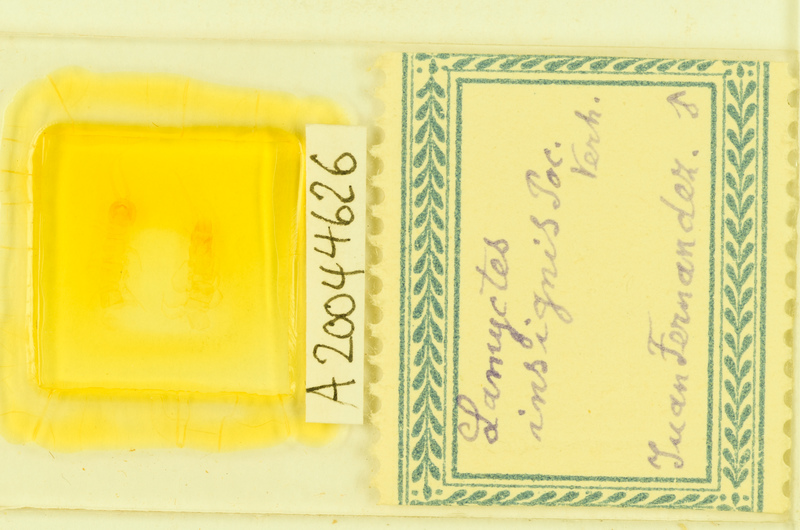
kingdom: Animalia
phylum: Arthropoda
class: Chilopoda
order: Lithobiomorpha
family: Henicopidae
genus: Lamyctes
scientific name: Lamyctes africanus
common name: Centipede
